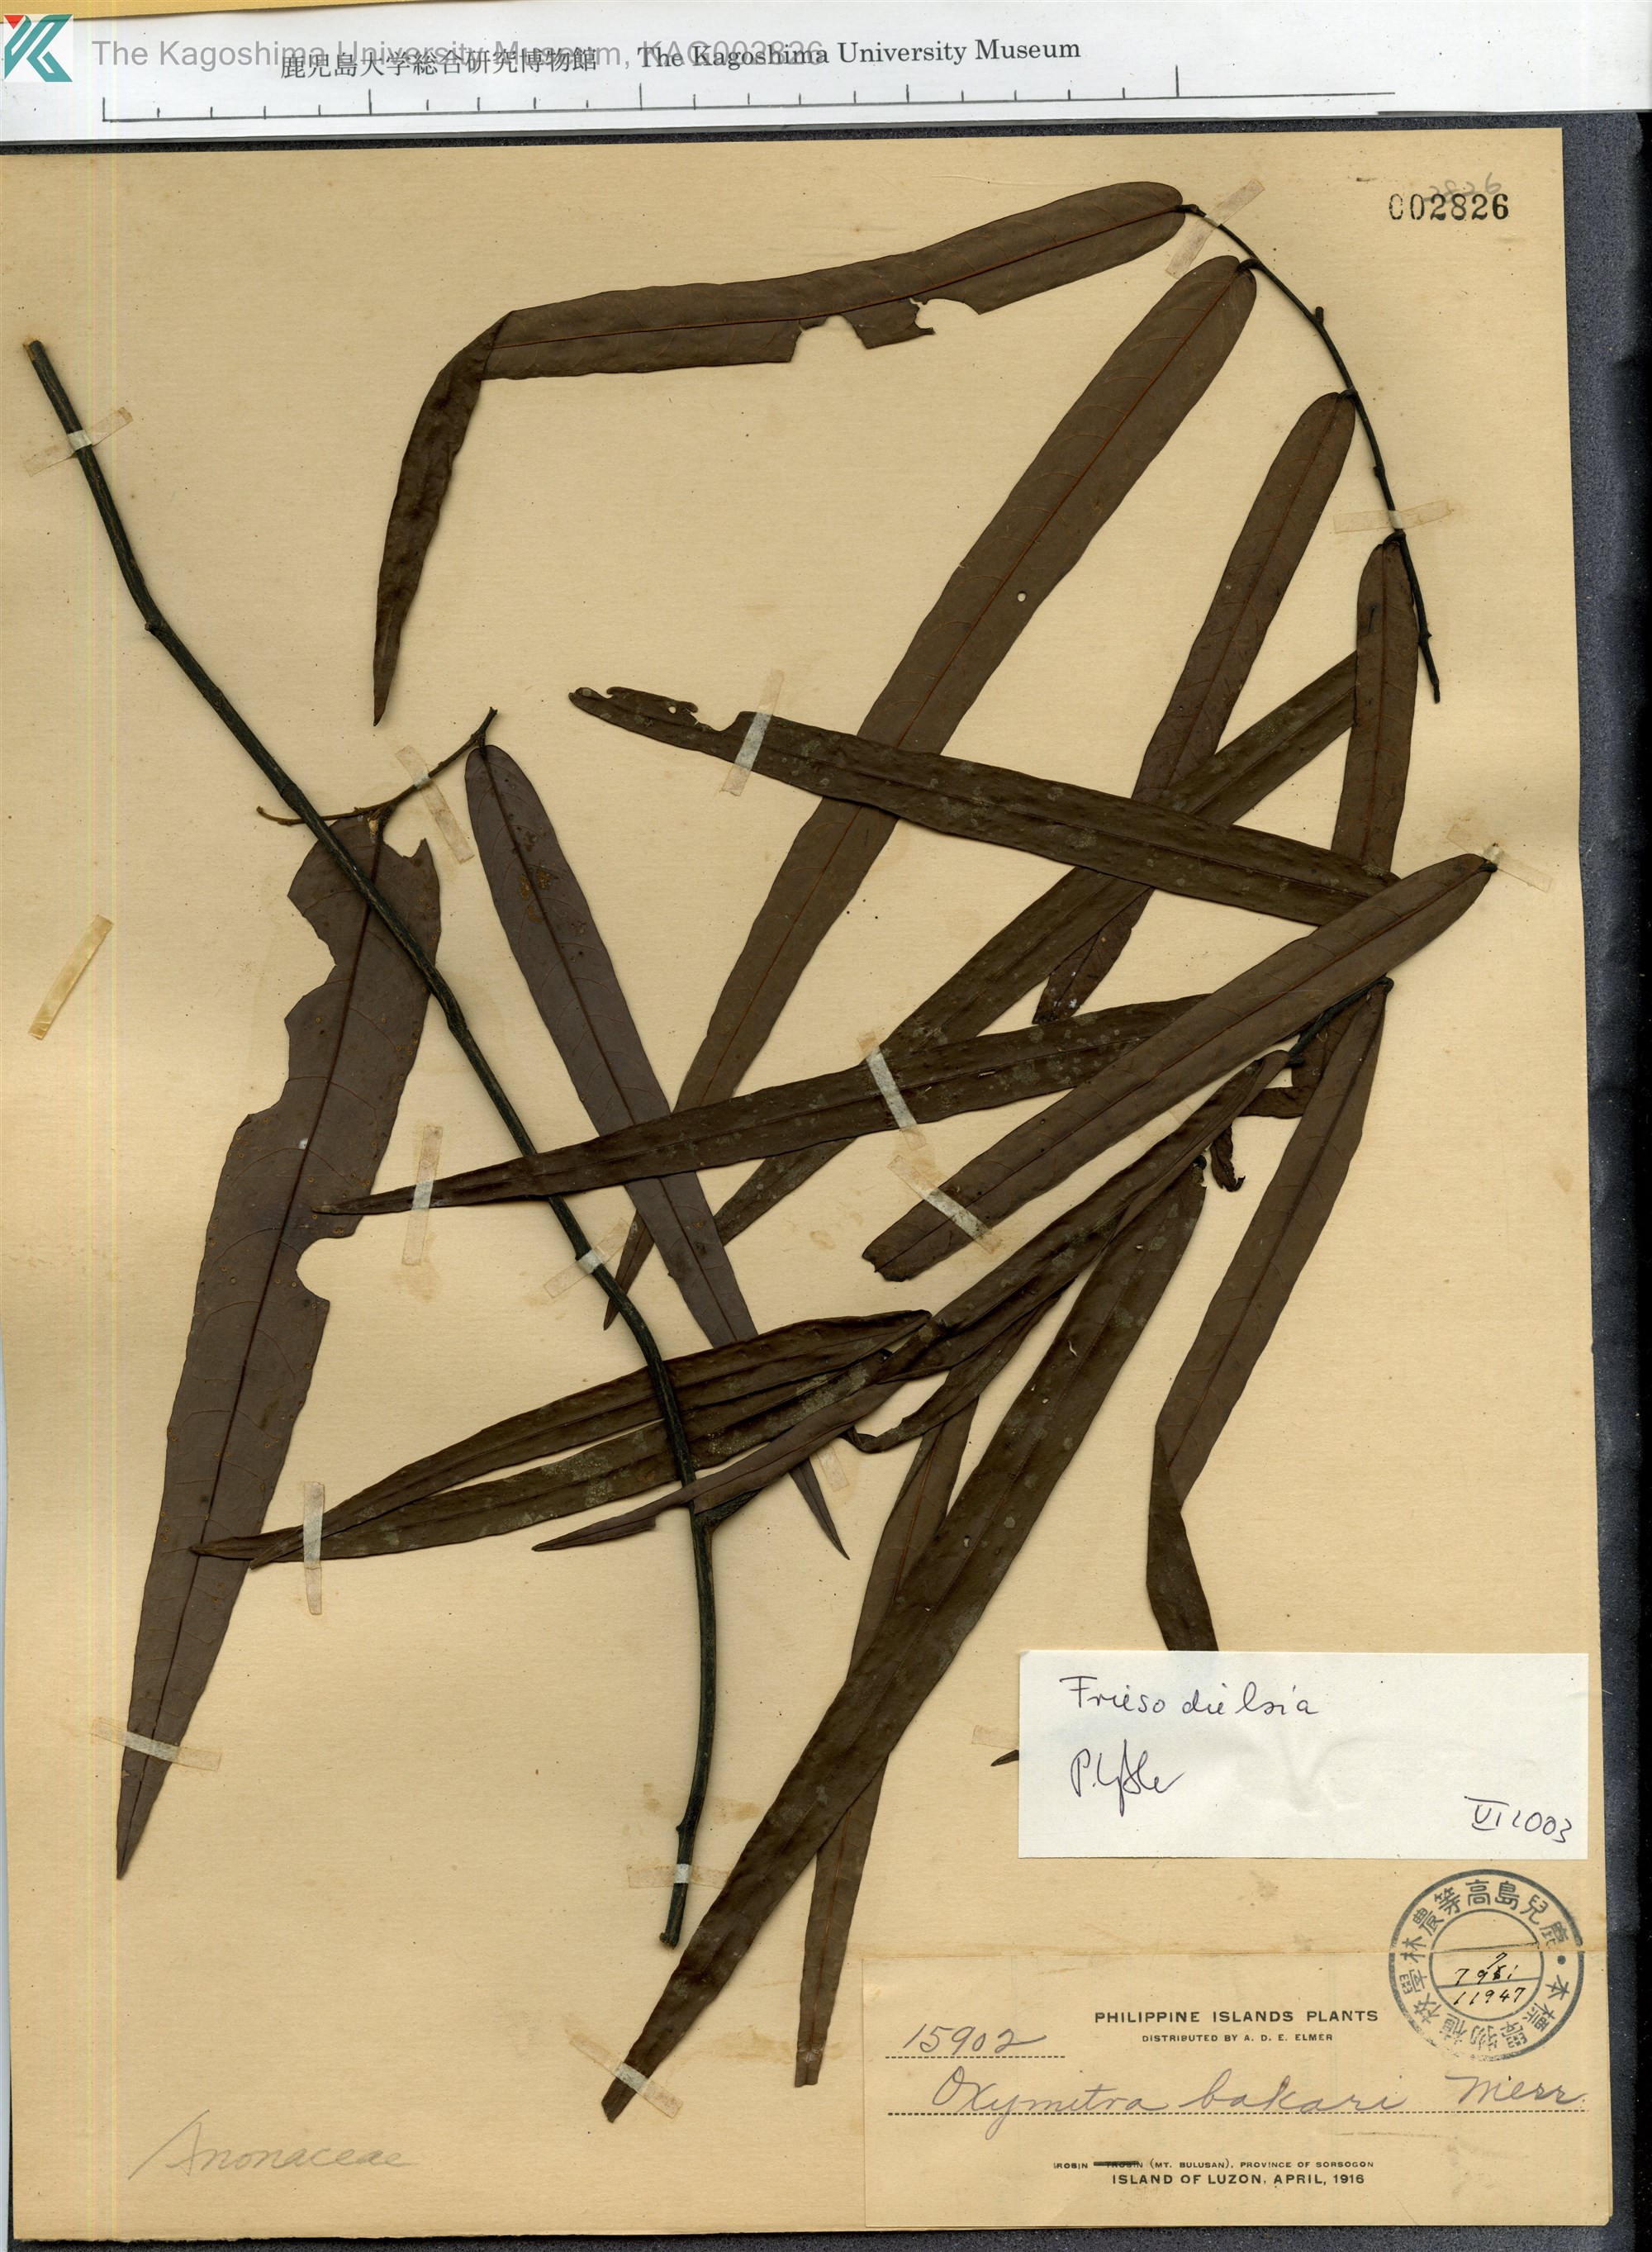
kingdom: Plantae
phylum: Tracheophyta
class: Magnoliopsida
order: Magnoliales
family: Annonaceae
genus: Friesodielsia
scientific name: Friesodielsia
